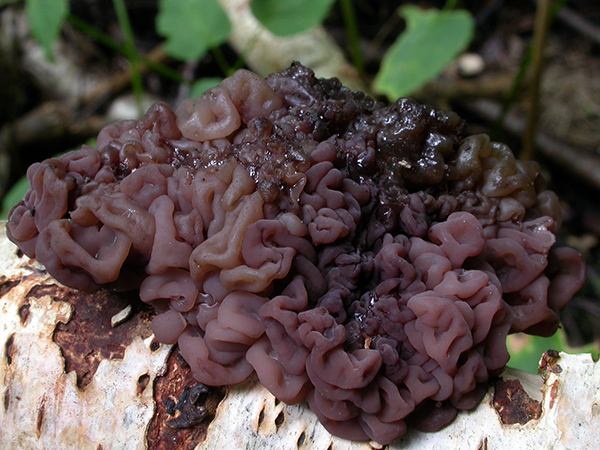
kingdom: Fungi
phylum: Ascomycota
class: Leotiomycetes
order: Helotiales
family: Gelatinodiscaceae
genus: Ascotremella
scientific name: Ascotremella faginea
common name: hjerne-bævreskive
